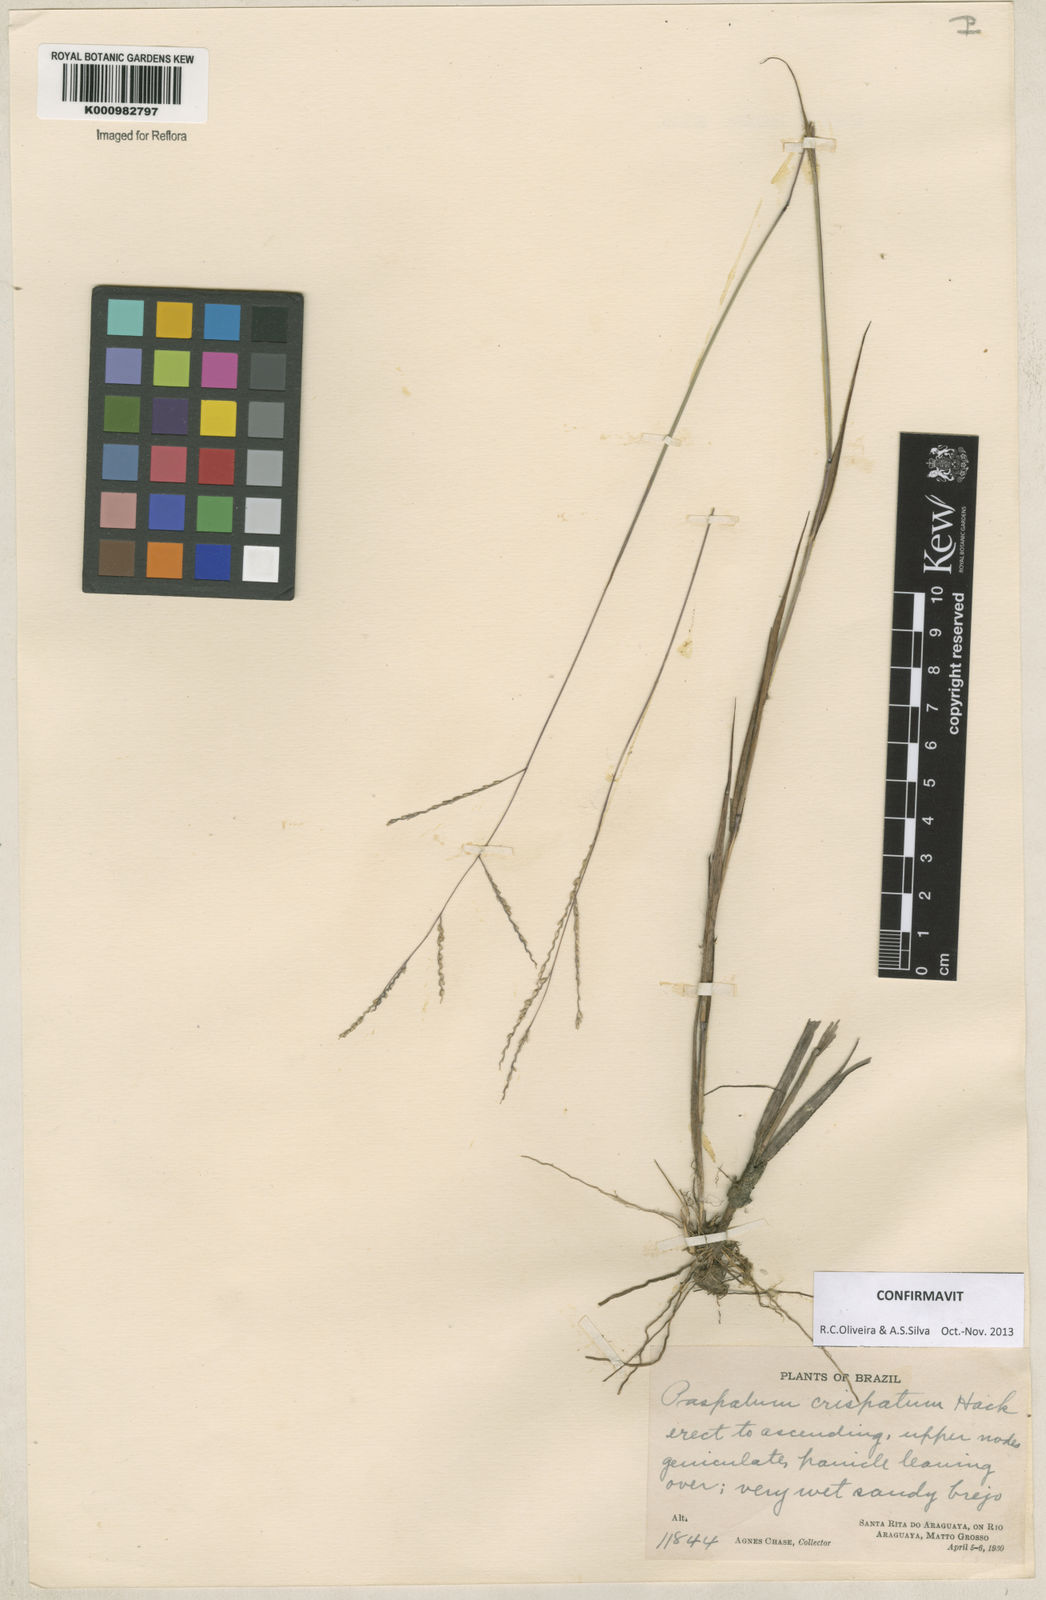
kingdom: Plantae
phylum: Tracheophyta
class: Liliopsida
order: Poales
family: Poaceae
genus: Paspalum
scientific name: Paspalum crispatum
